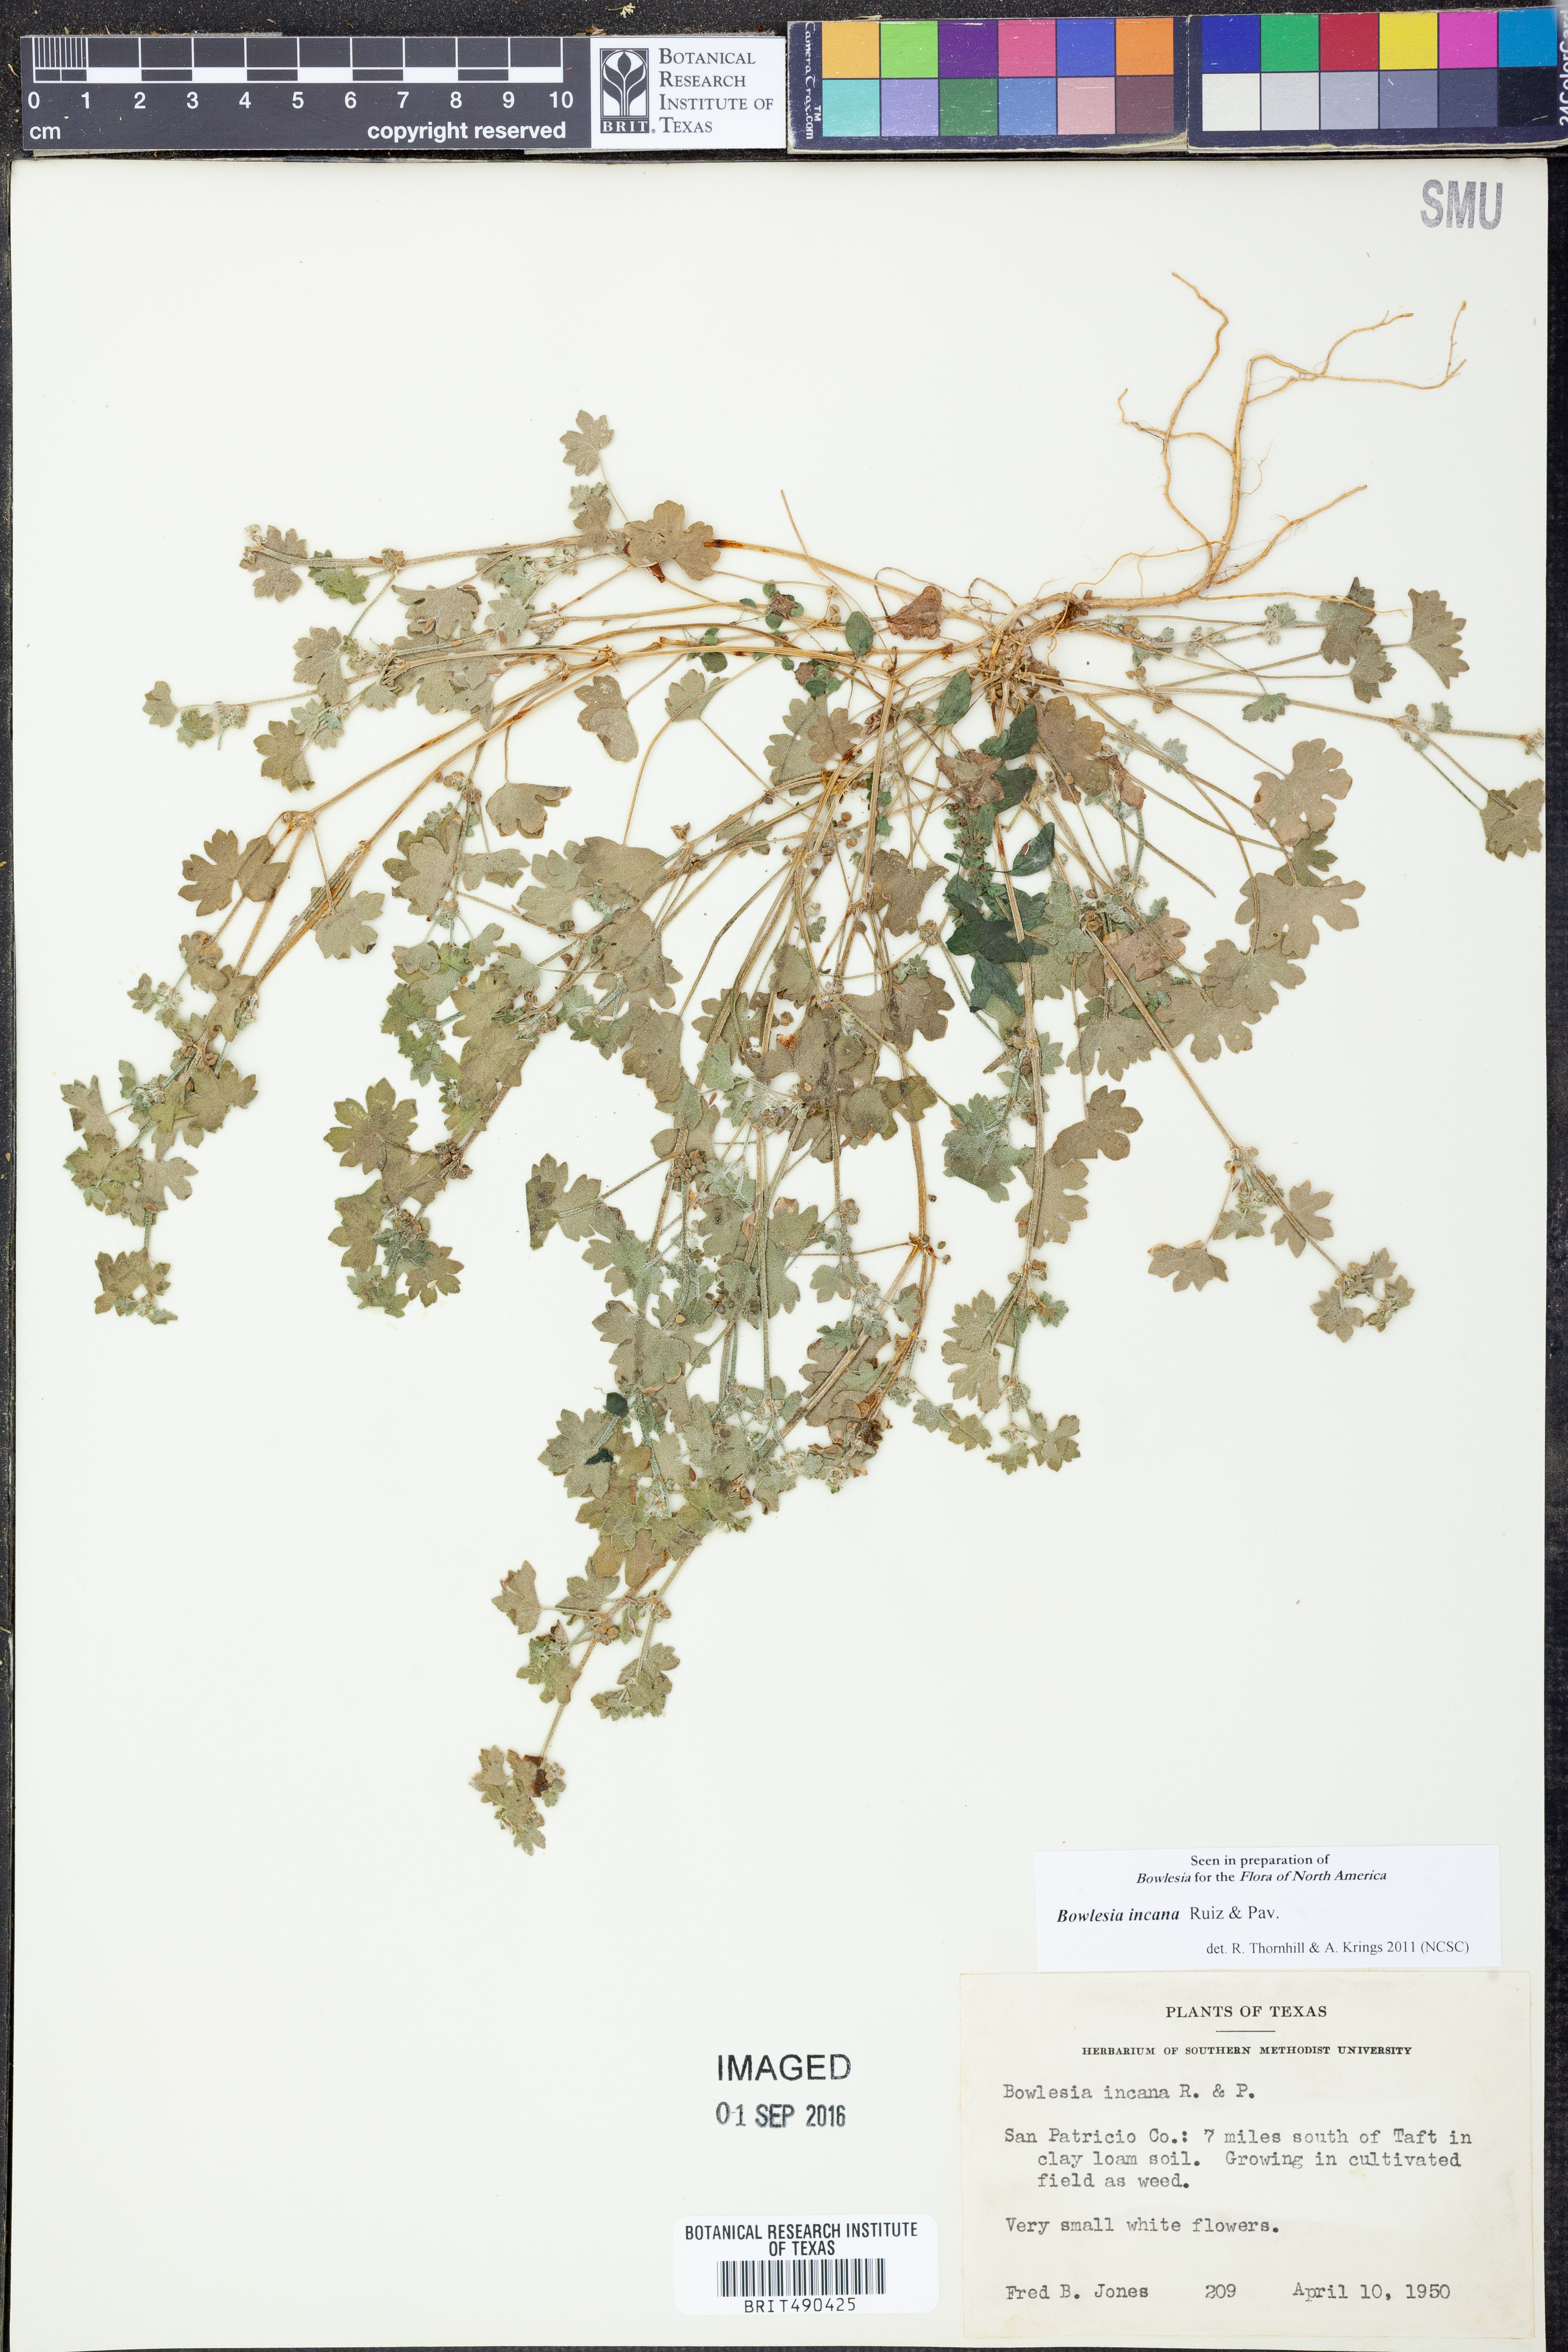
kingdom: Plantae
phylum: Tracheophyta
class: Magnoliopsida
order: Apiales
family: Apiaceae
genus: Bowlesia
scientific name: Bowlesia incana
